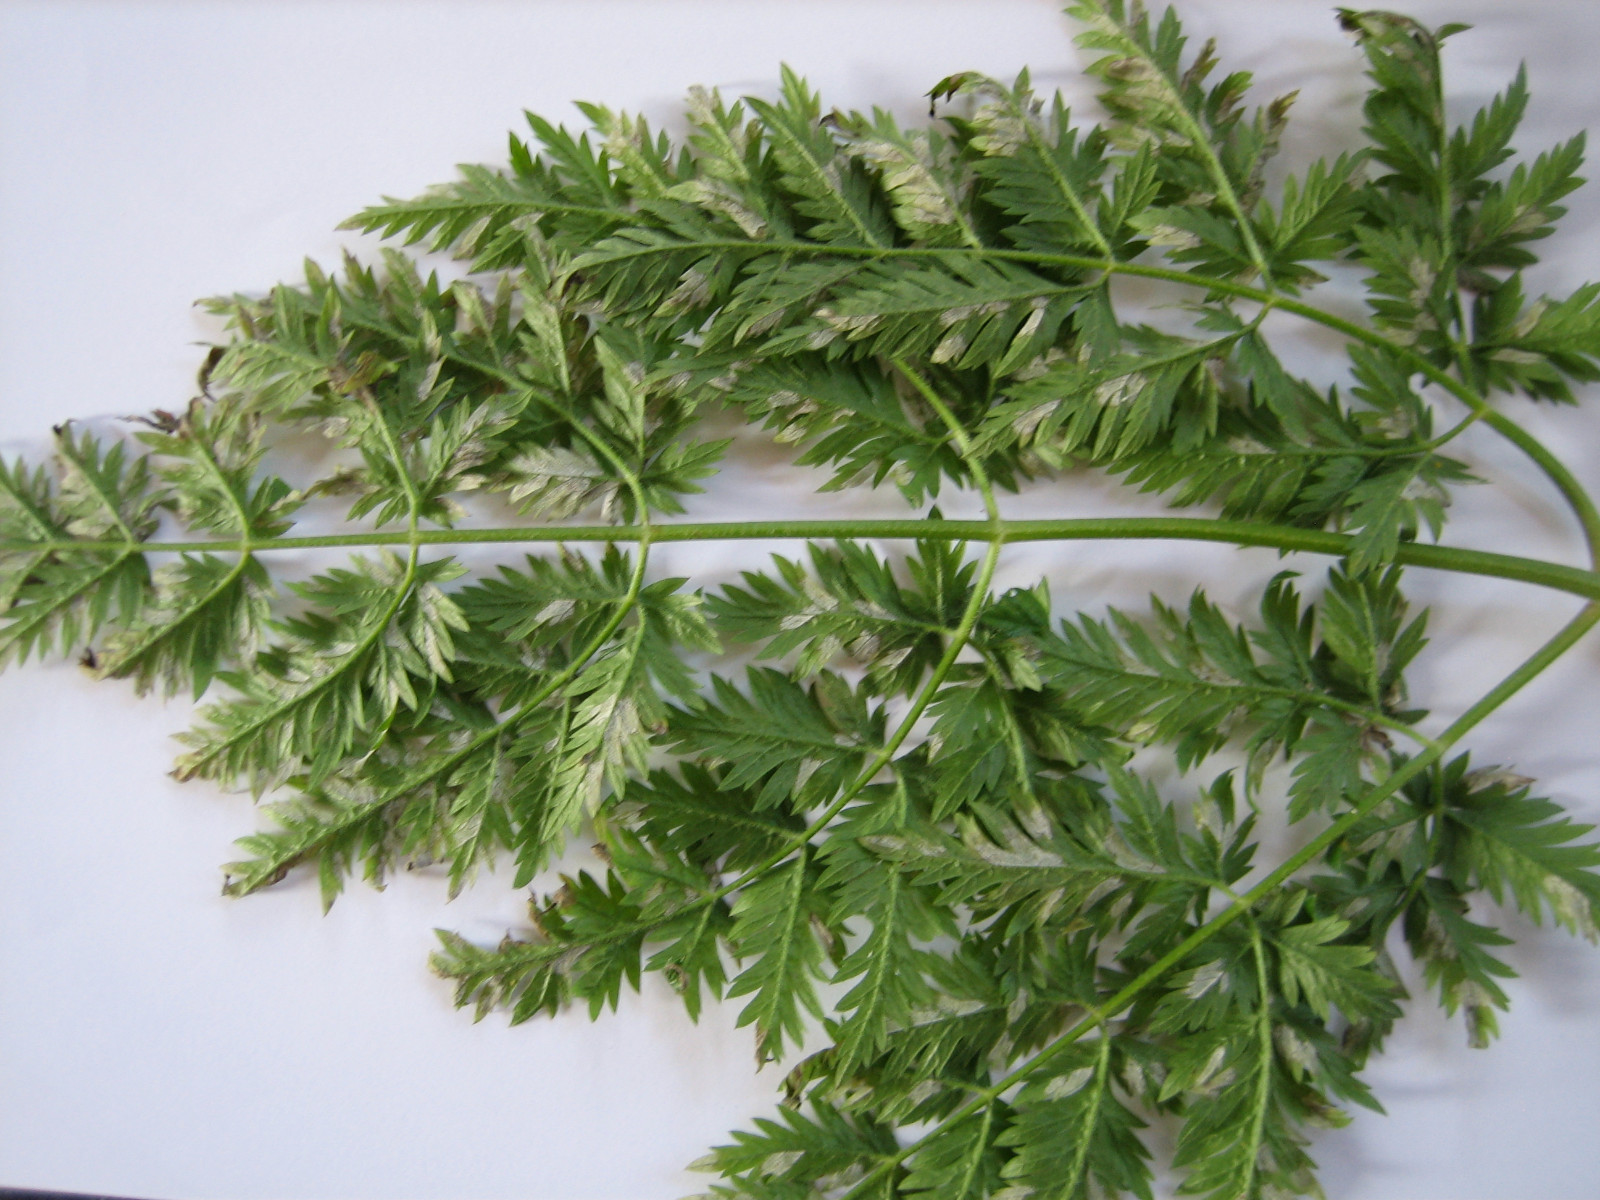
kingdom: Chromista
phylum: Oomycota
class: Peronosporea
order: Peronosporales
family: Peronosporaceae
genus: Peronospora
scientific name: Peronospora crustosa
